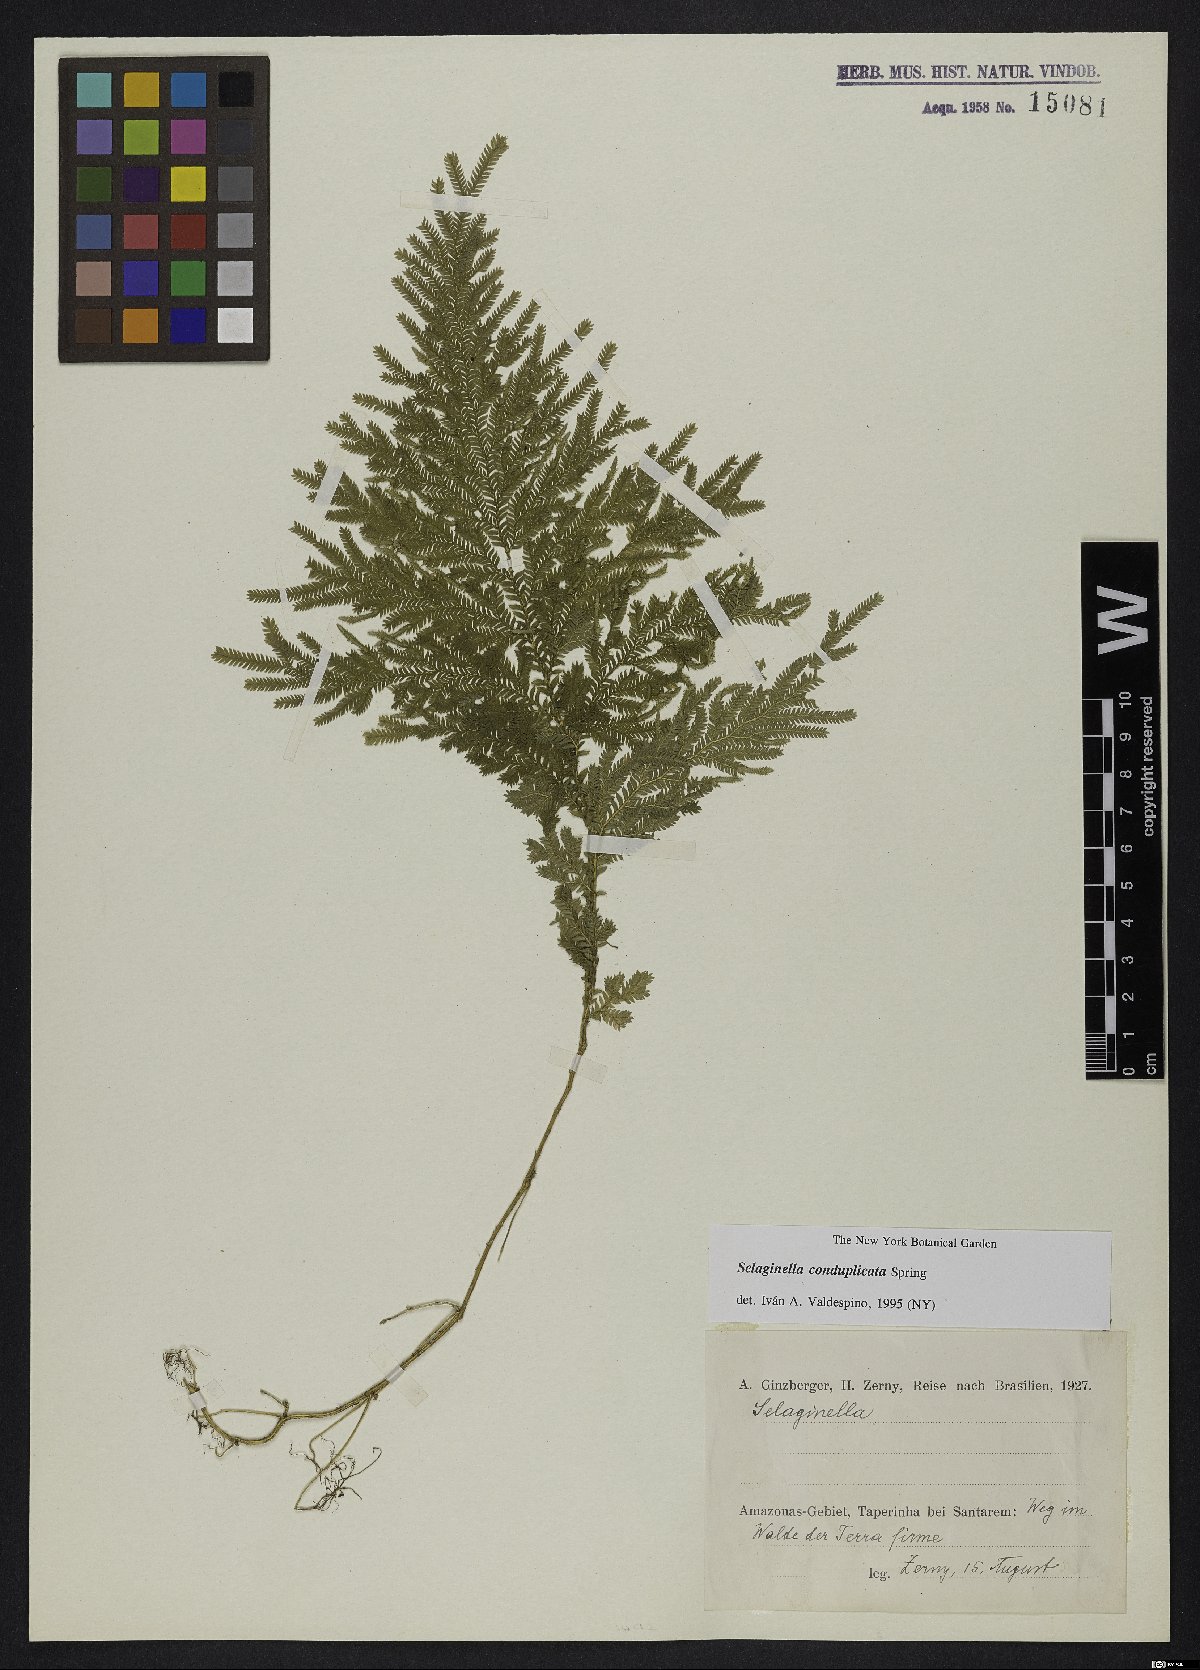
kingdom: Plantae
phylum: Tracheophyta
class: Lycopodiopsida
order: Selaginellales
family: Selaginellaceae
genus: Selaginella
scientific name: Selaginella conduplicata
